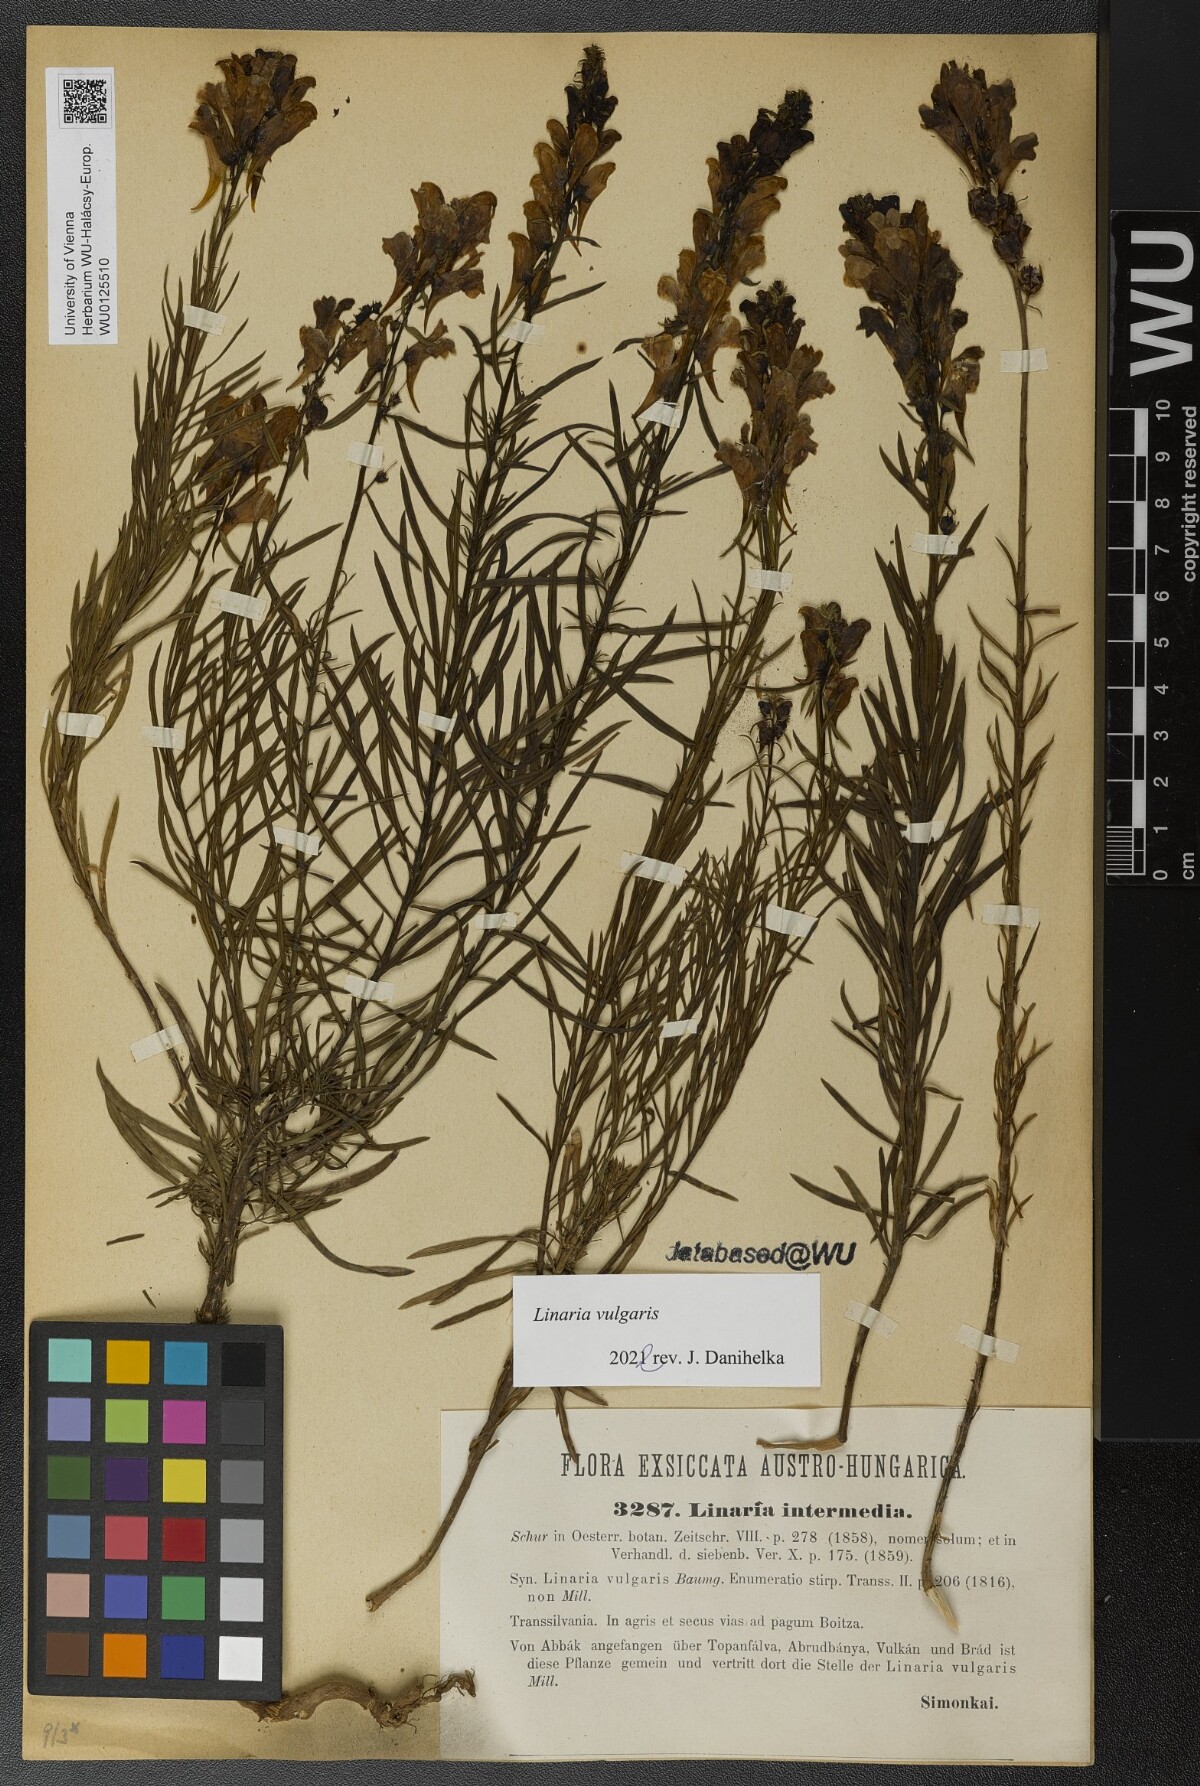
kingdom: Plantae
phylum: Tracheophyta
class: Magnoliopsida
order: Lamiales
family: Plantaginaceae
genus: Linaria
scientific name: Linaria vulgaris
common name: Butter and eggs
